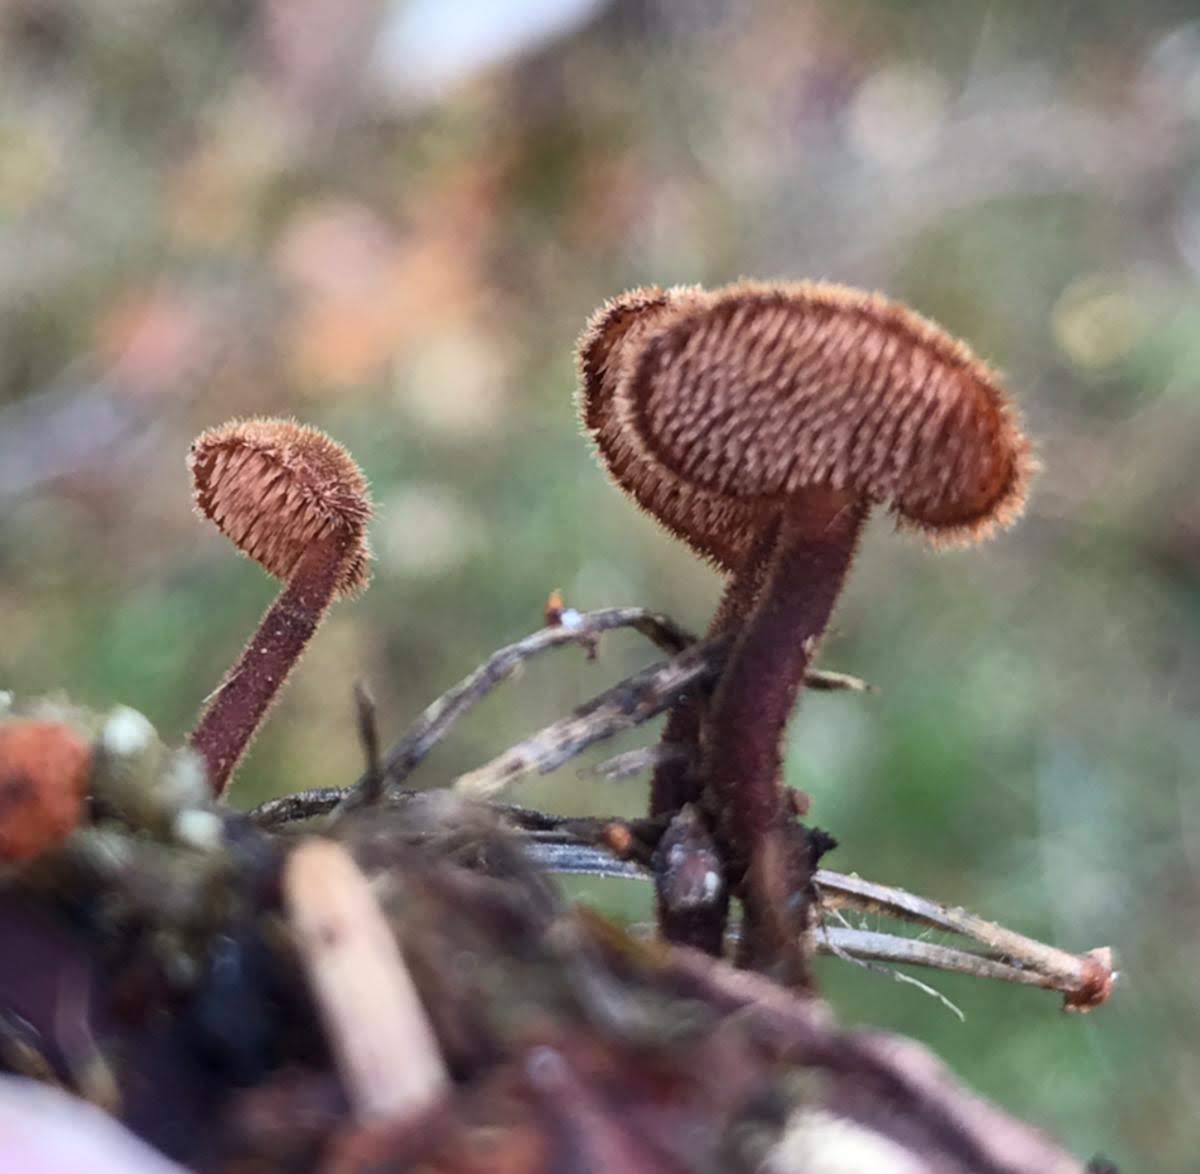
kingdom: Fungi
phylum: Basidiomycota
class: Agaricomycetes
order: Russulales
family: Auriscalpiaceae
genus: Auriscalpium
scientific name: Auriscalpium vulgare
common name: koglepigsvamp
